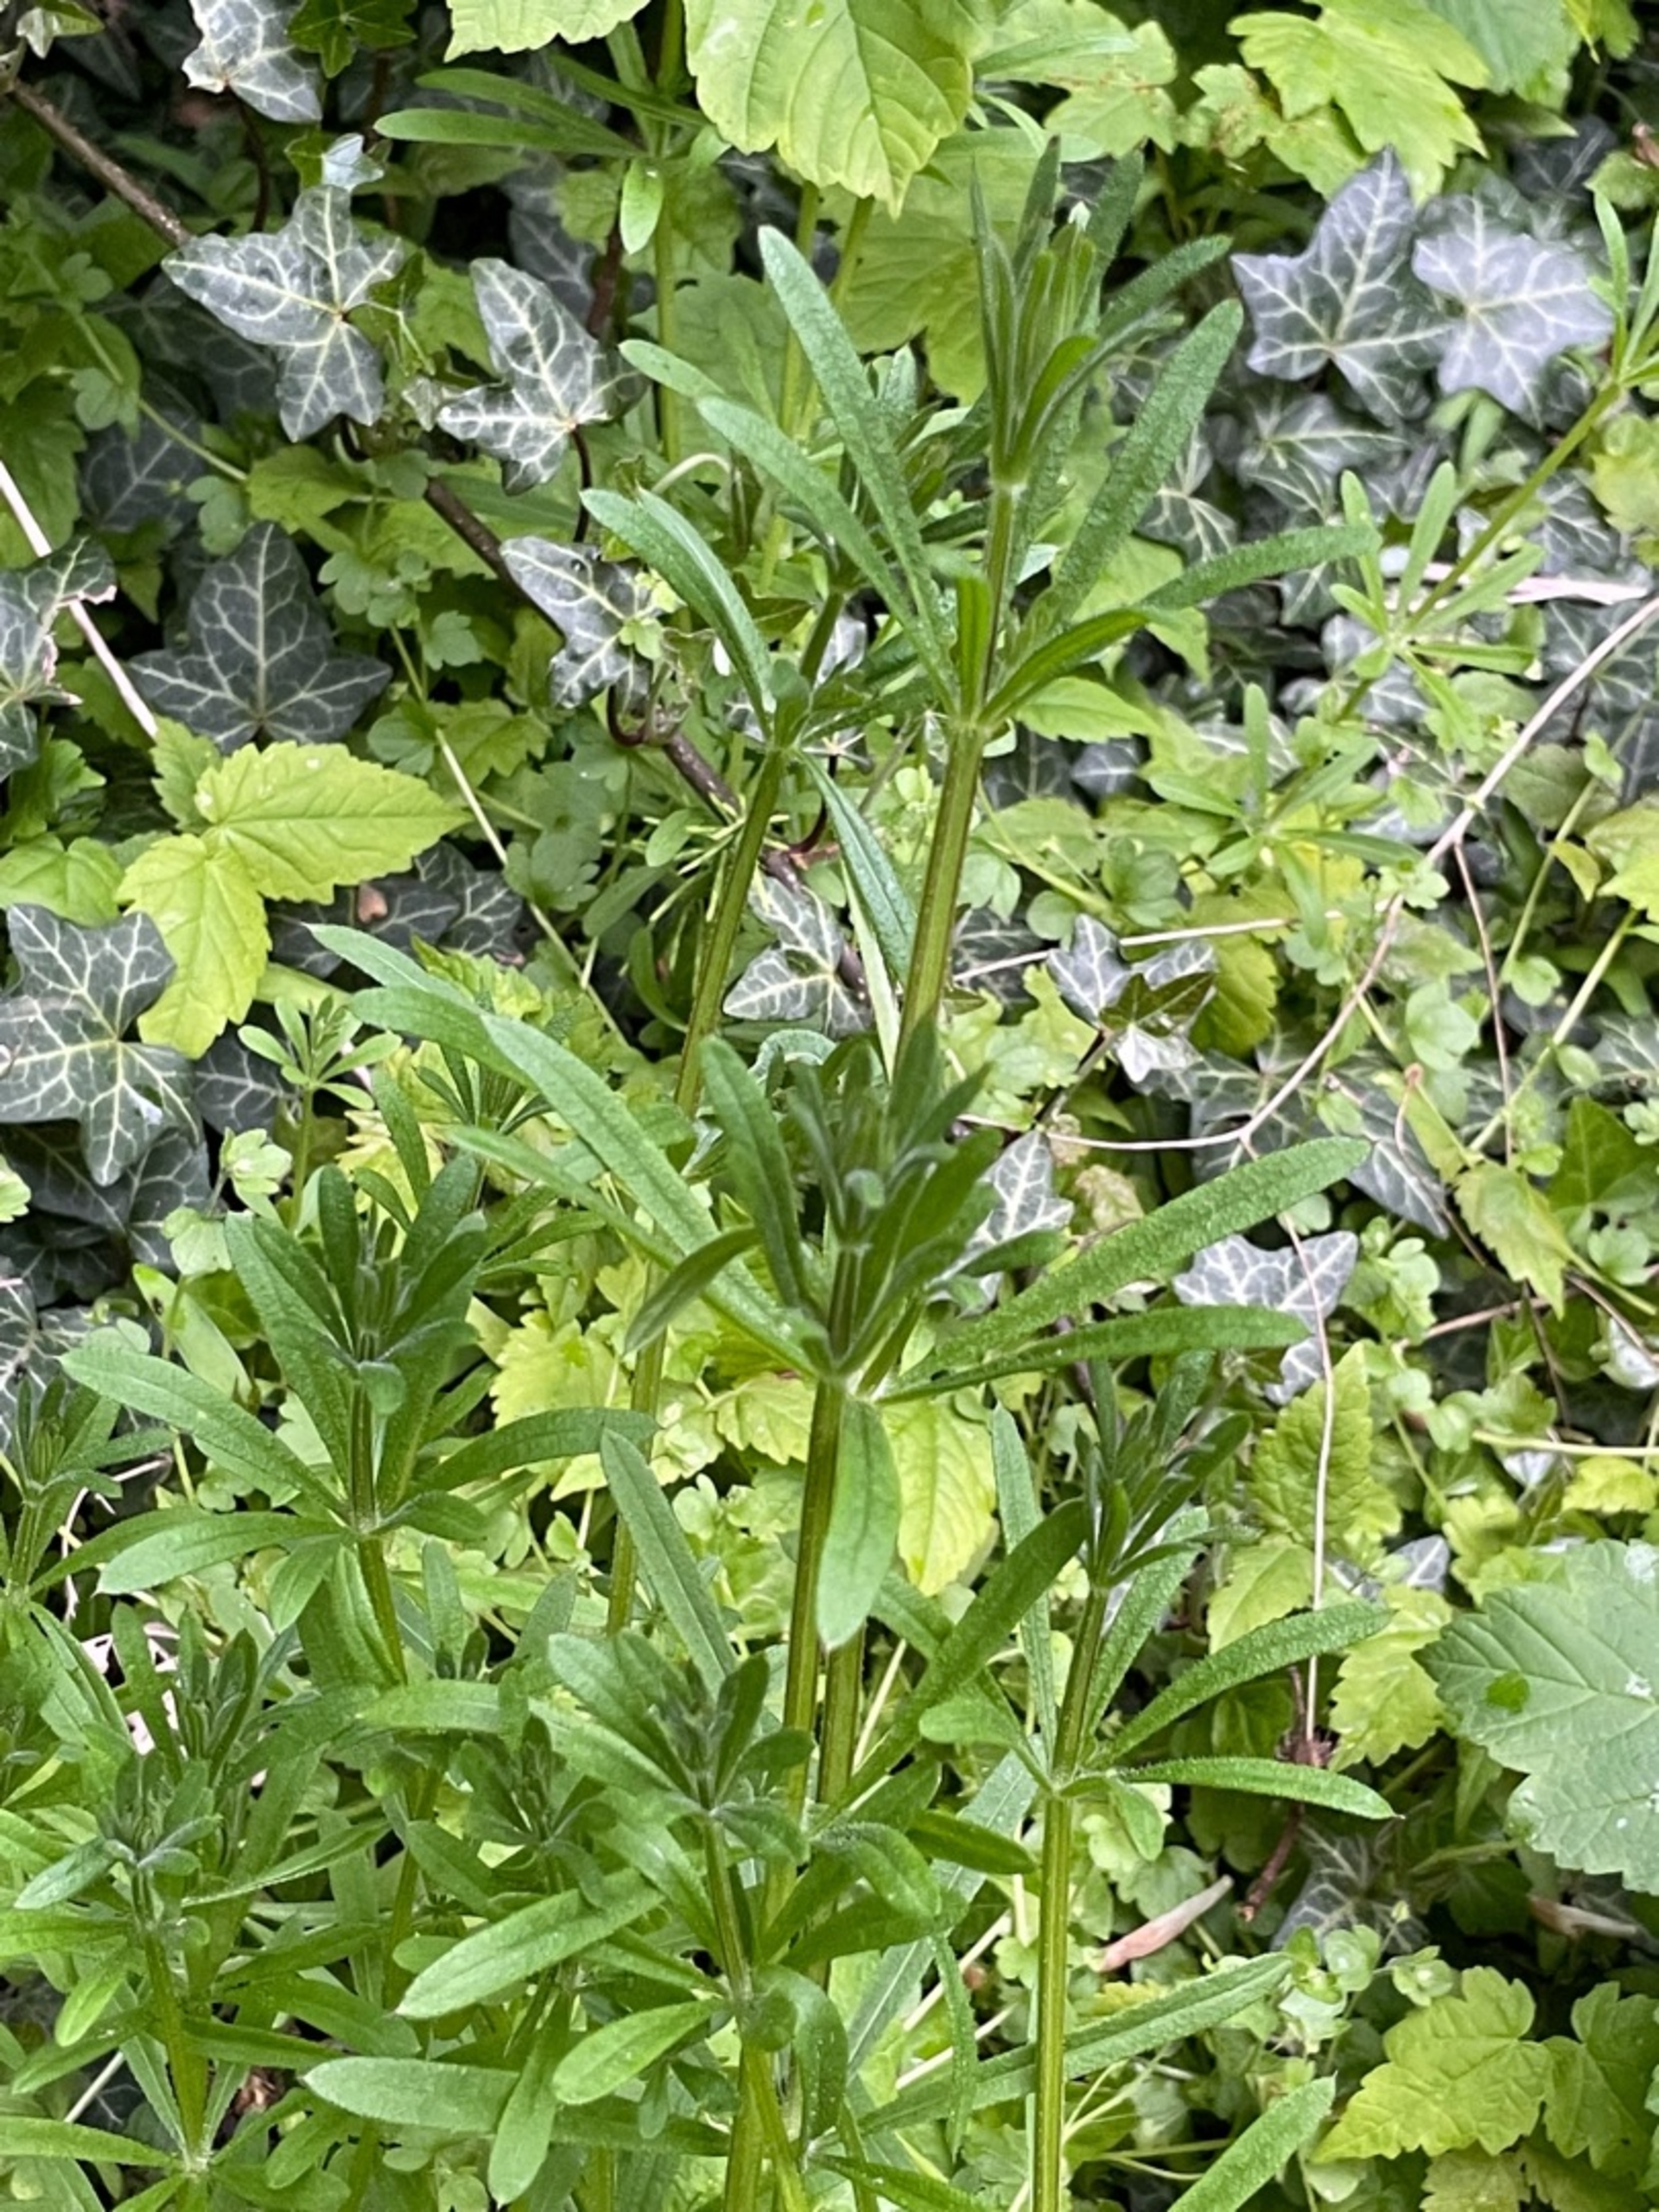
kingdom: Plantae
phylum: Tracheophyta
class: Magnoliopsida
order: Gentianales
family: Rubiaceae
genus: Galium
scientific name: Galium aparine
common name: Burre-snerre
